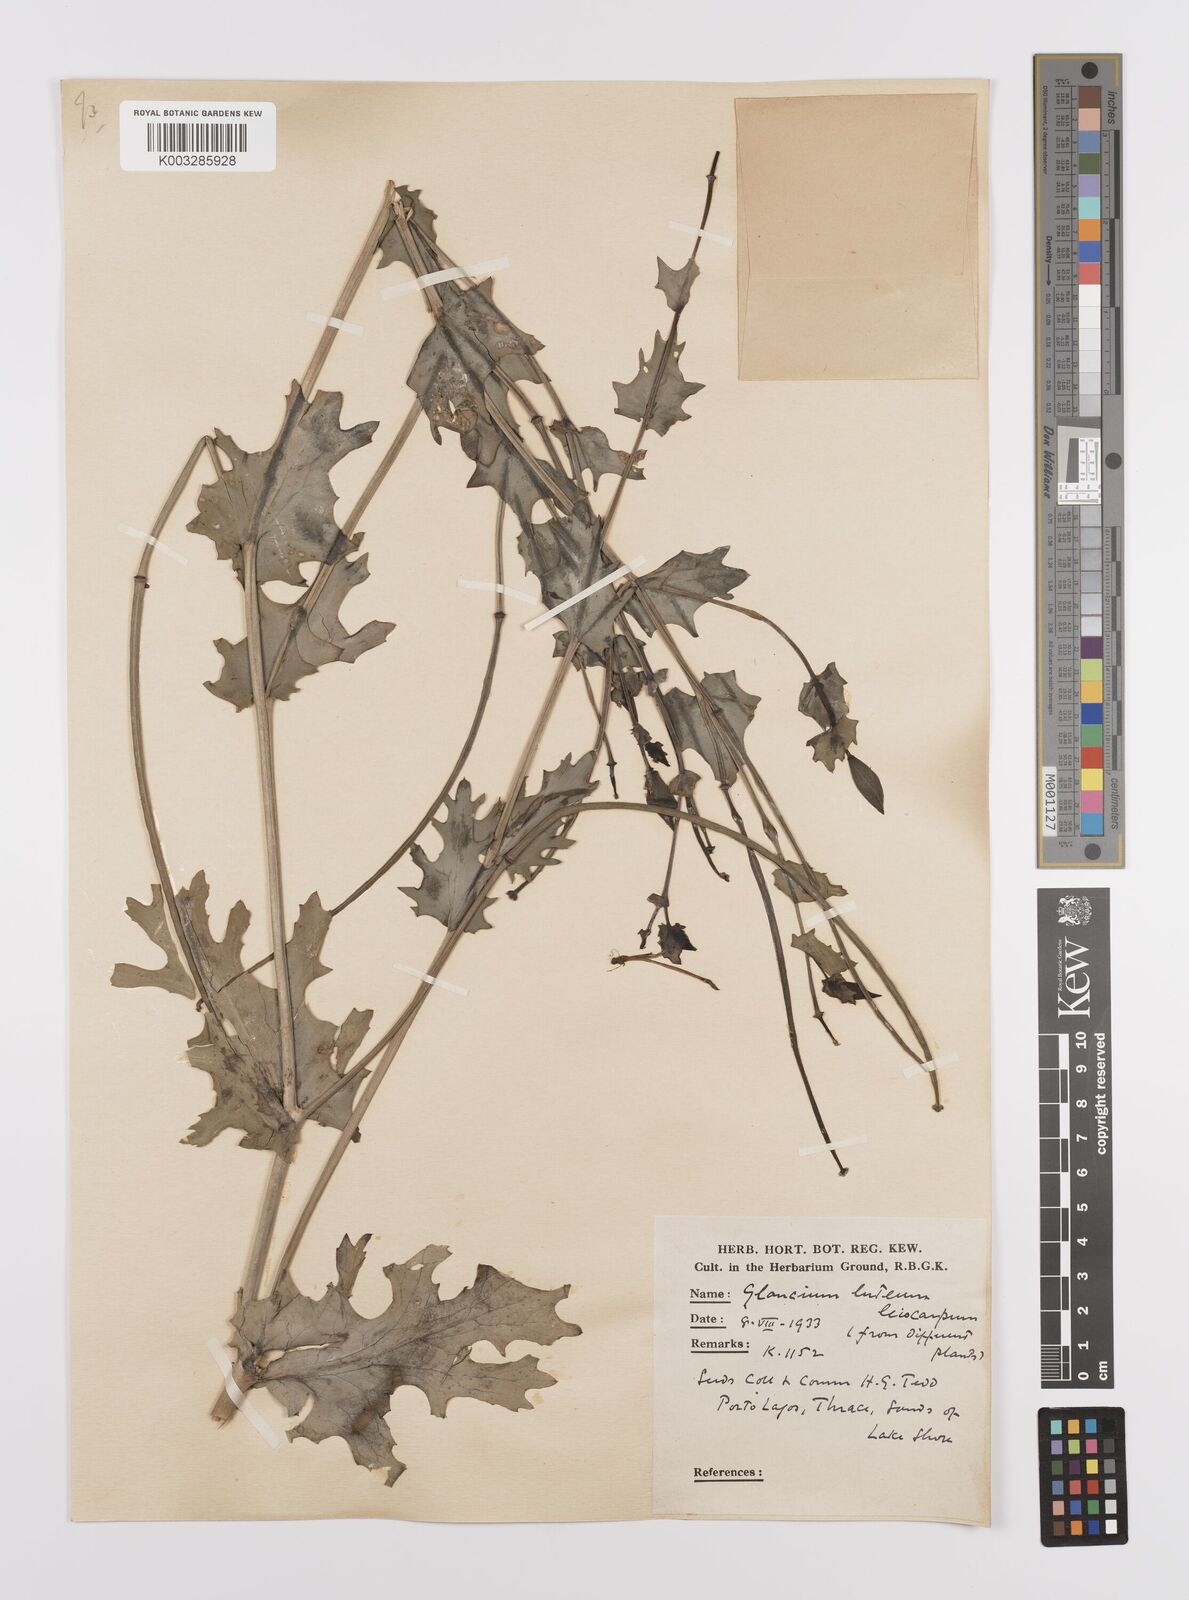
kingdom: Plantae
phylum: Tracheophyta
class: Magnoliopsida
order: Ranunculales
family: Papaveraceae
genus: Glaucium
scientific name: Glaucium flavum
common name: Yellow horned-poppy
